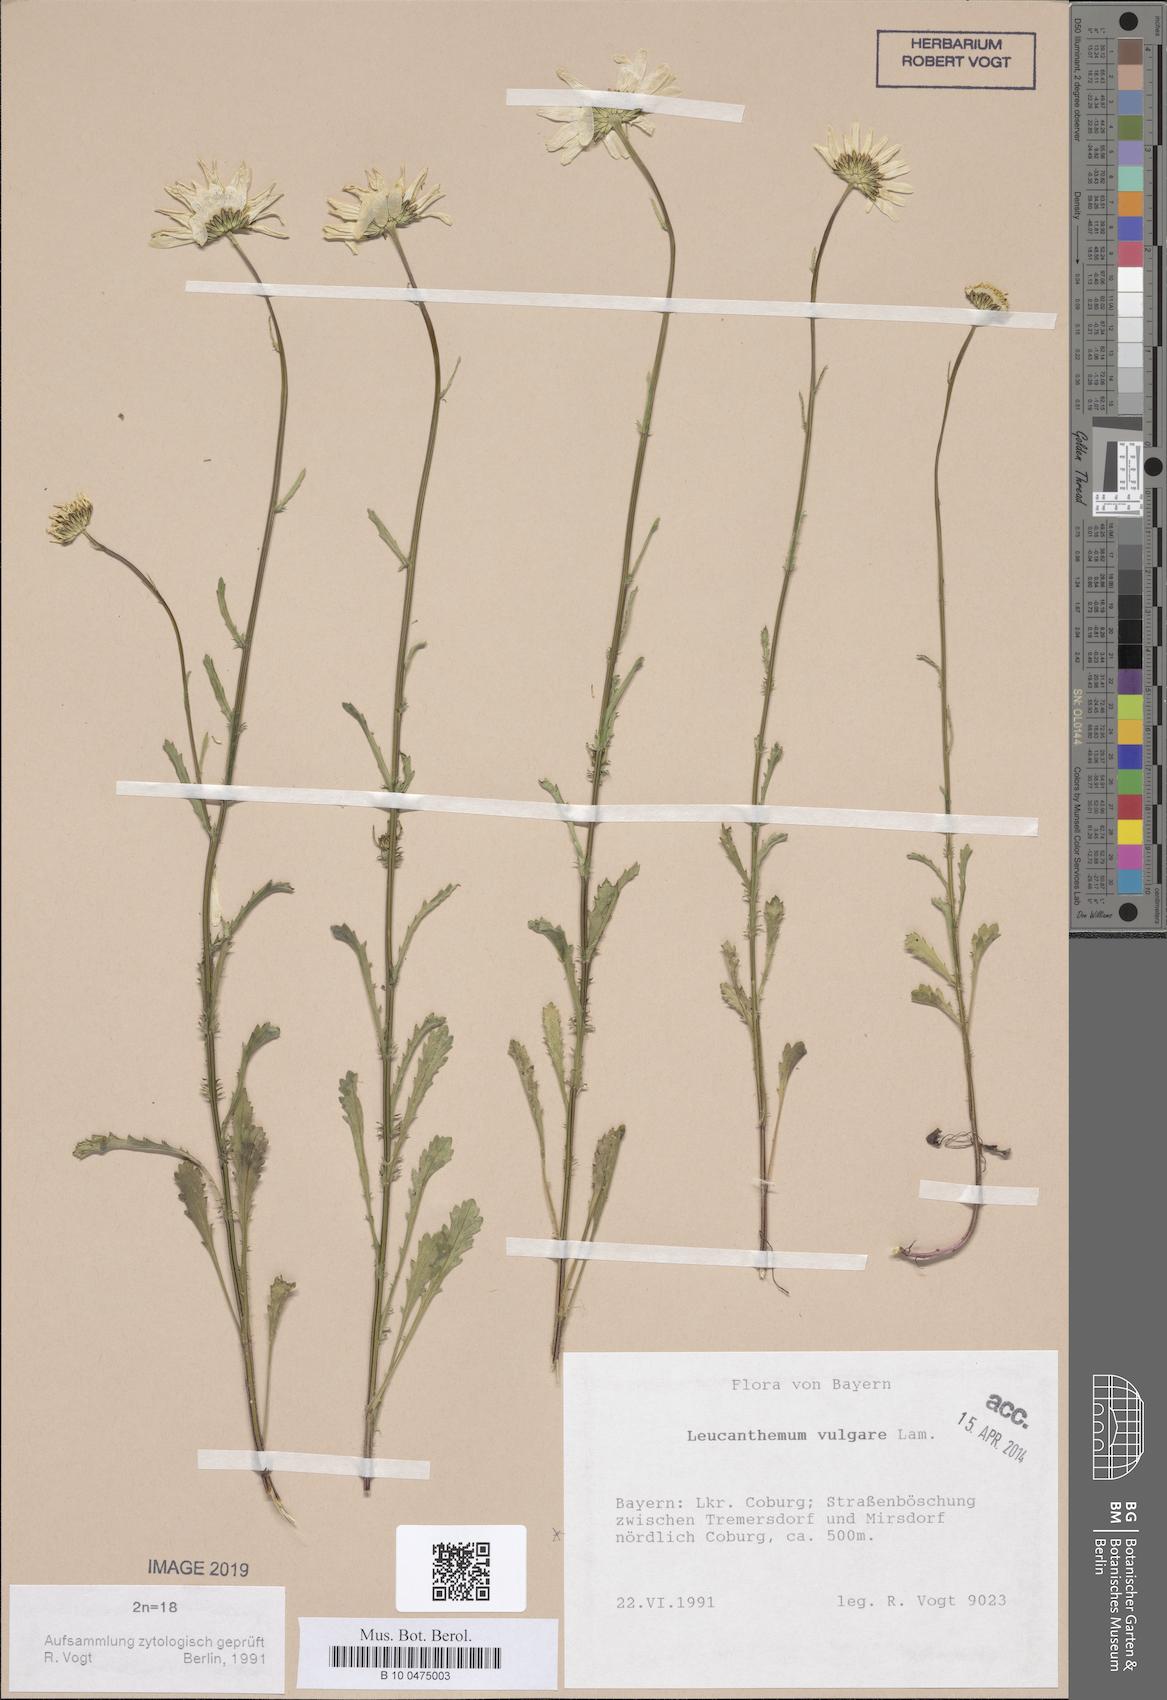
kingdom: Plantae
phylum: Tracheophyta
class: Magnoliopsida
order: Asterales
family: Asteraceae
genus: Leucanthemum
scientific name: Leucanthemum vulgare
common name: Oxeye daisy
